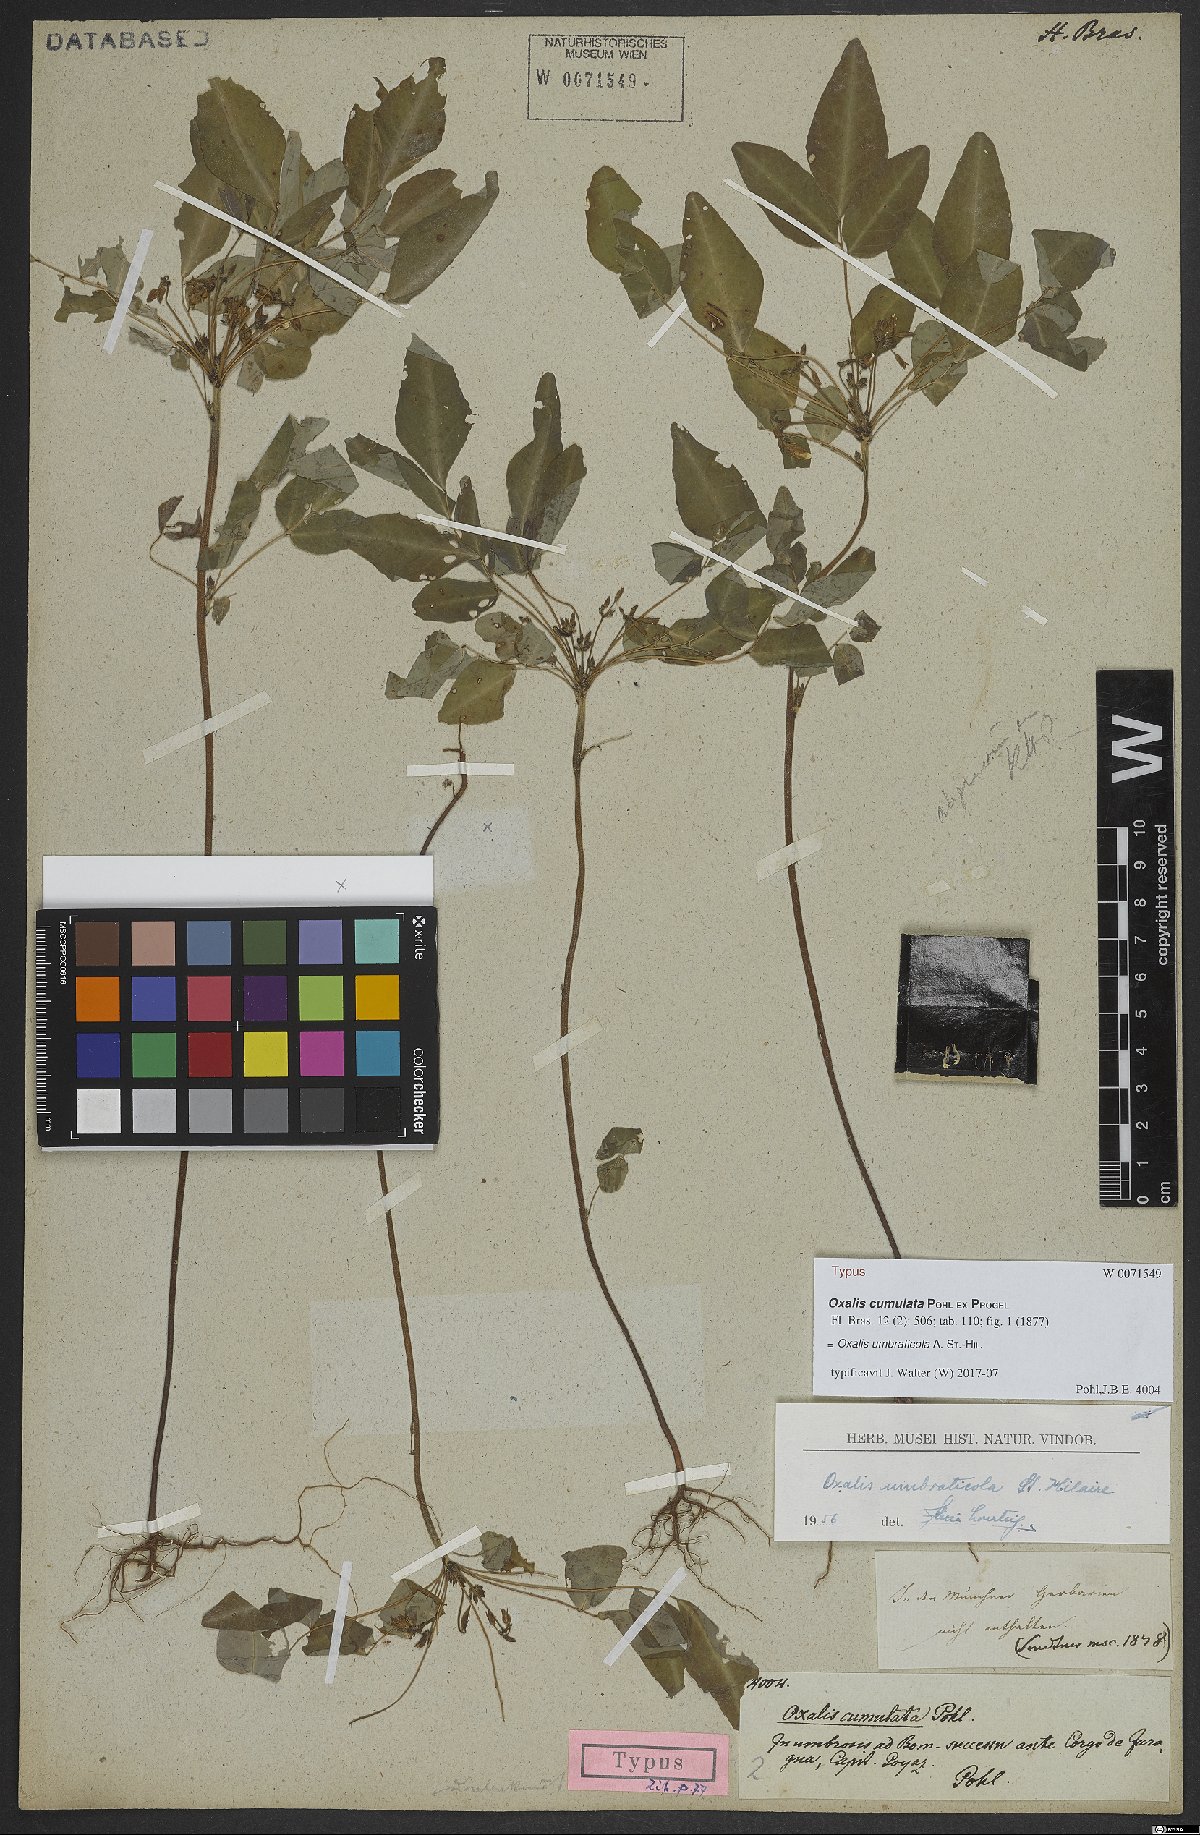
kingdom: Plantae
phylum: Tracheophyta
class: Magnoliopsida
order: Oxalidales
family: Oxalidaceae
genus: Oxalis
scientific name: Oxalis umbraticola
